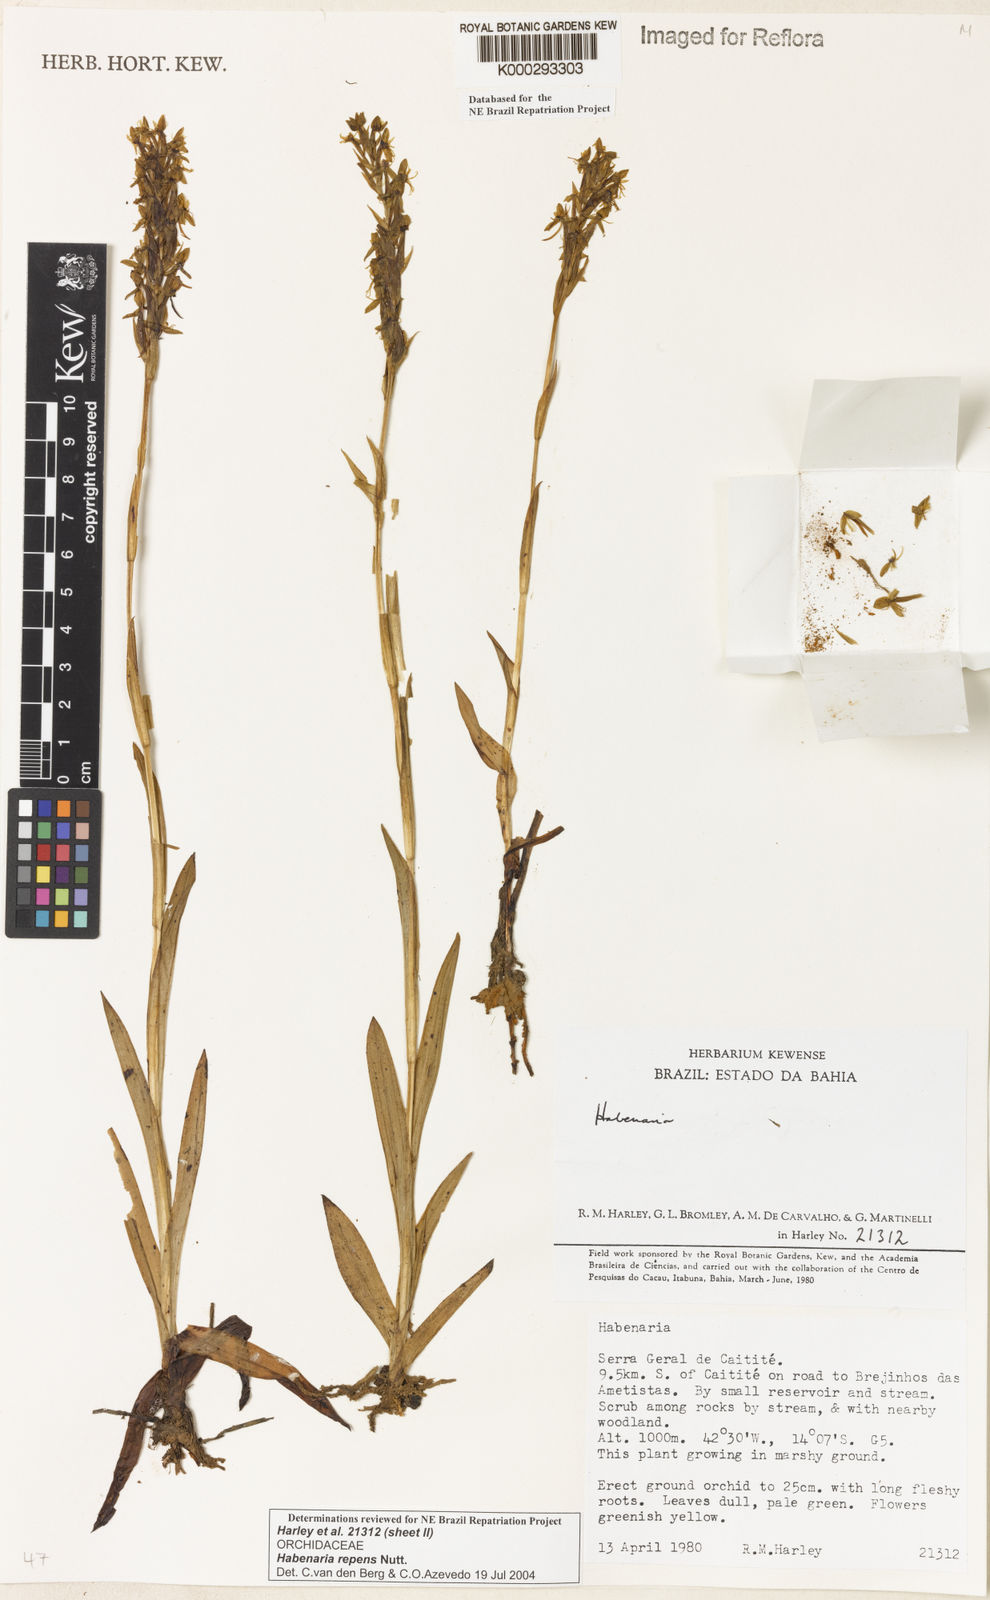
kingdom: Plantae
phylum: Tracheophyta
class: Liliopsida
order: Asparagales
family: Orchidaceae
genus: Habenaria
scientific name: Habenaria repens
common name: Water orchid
